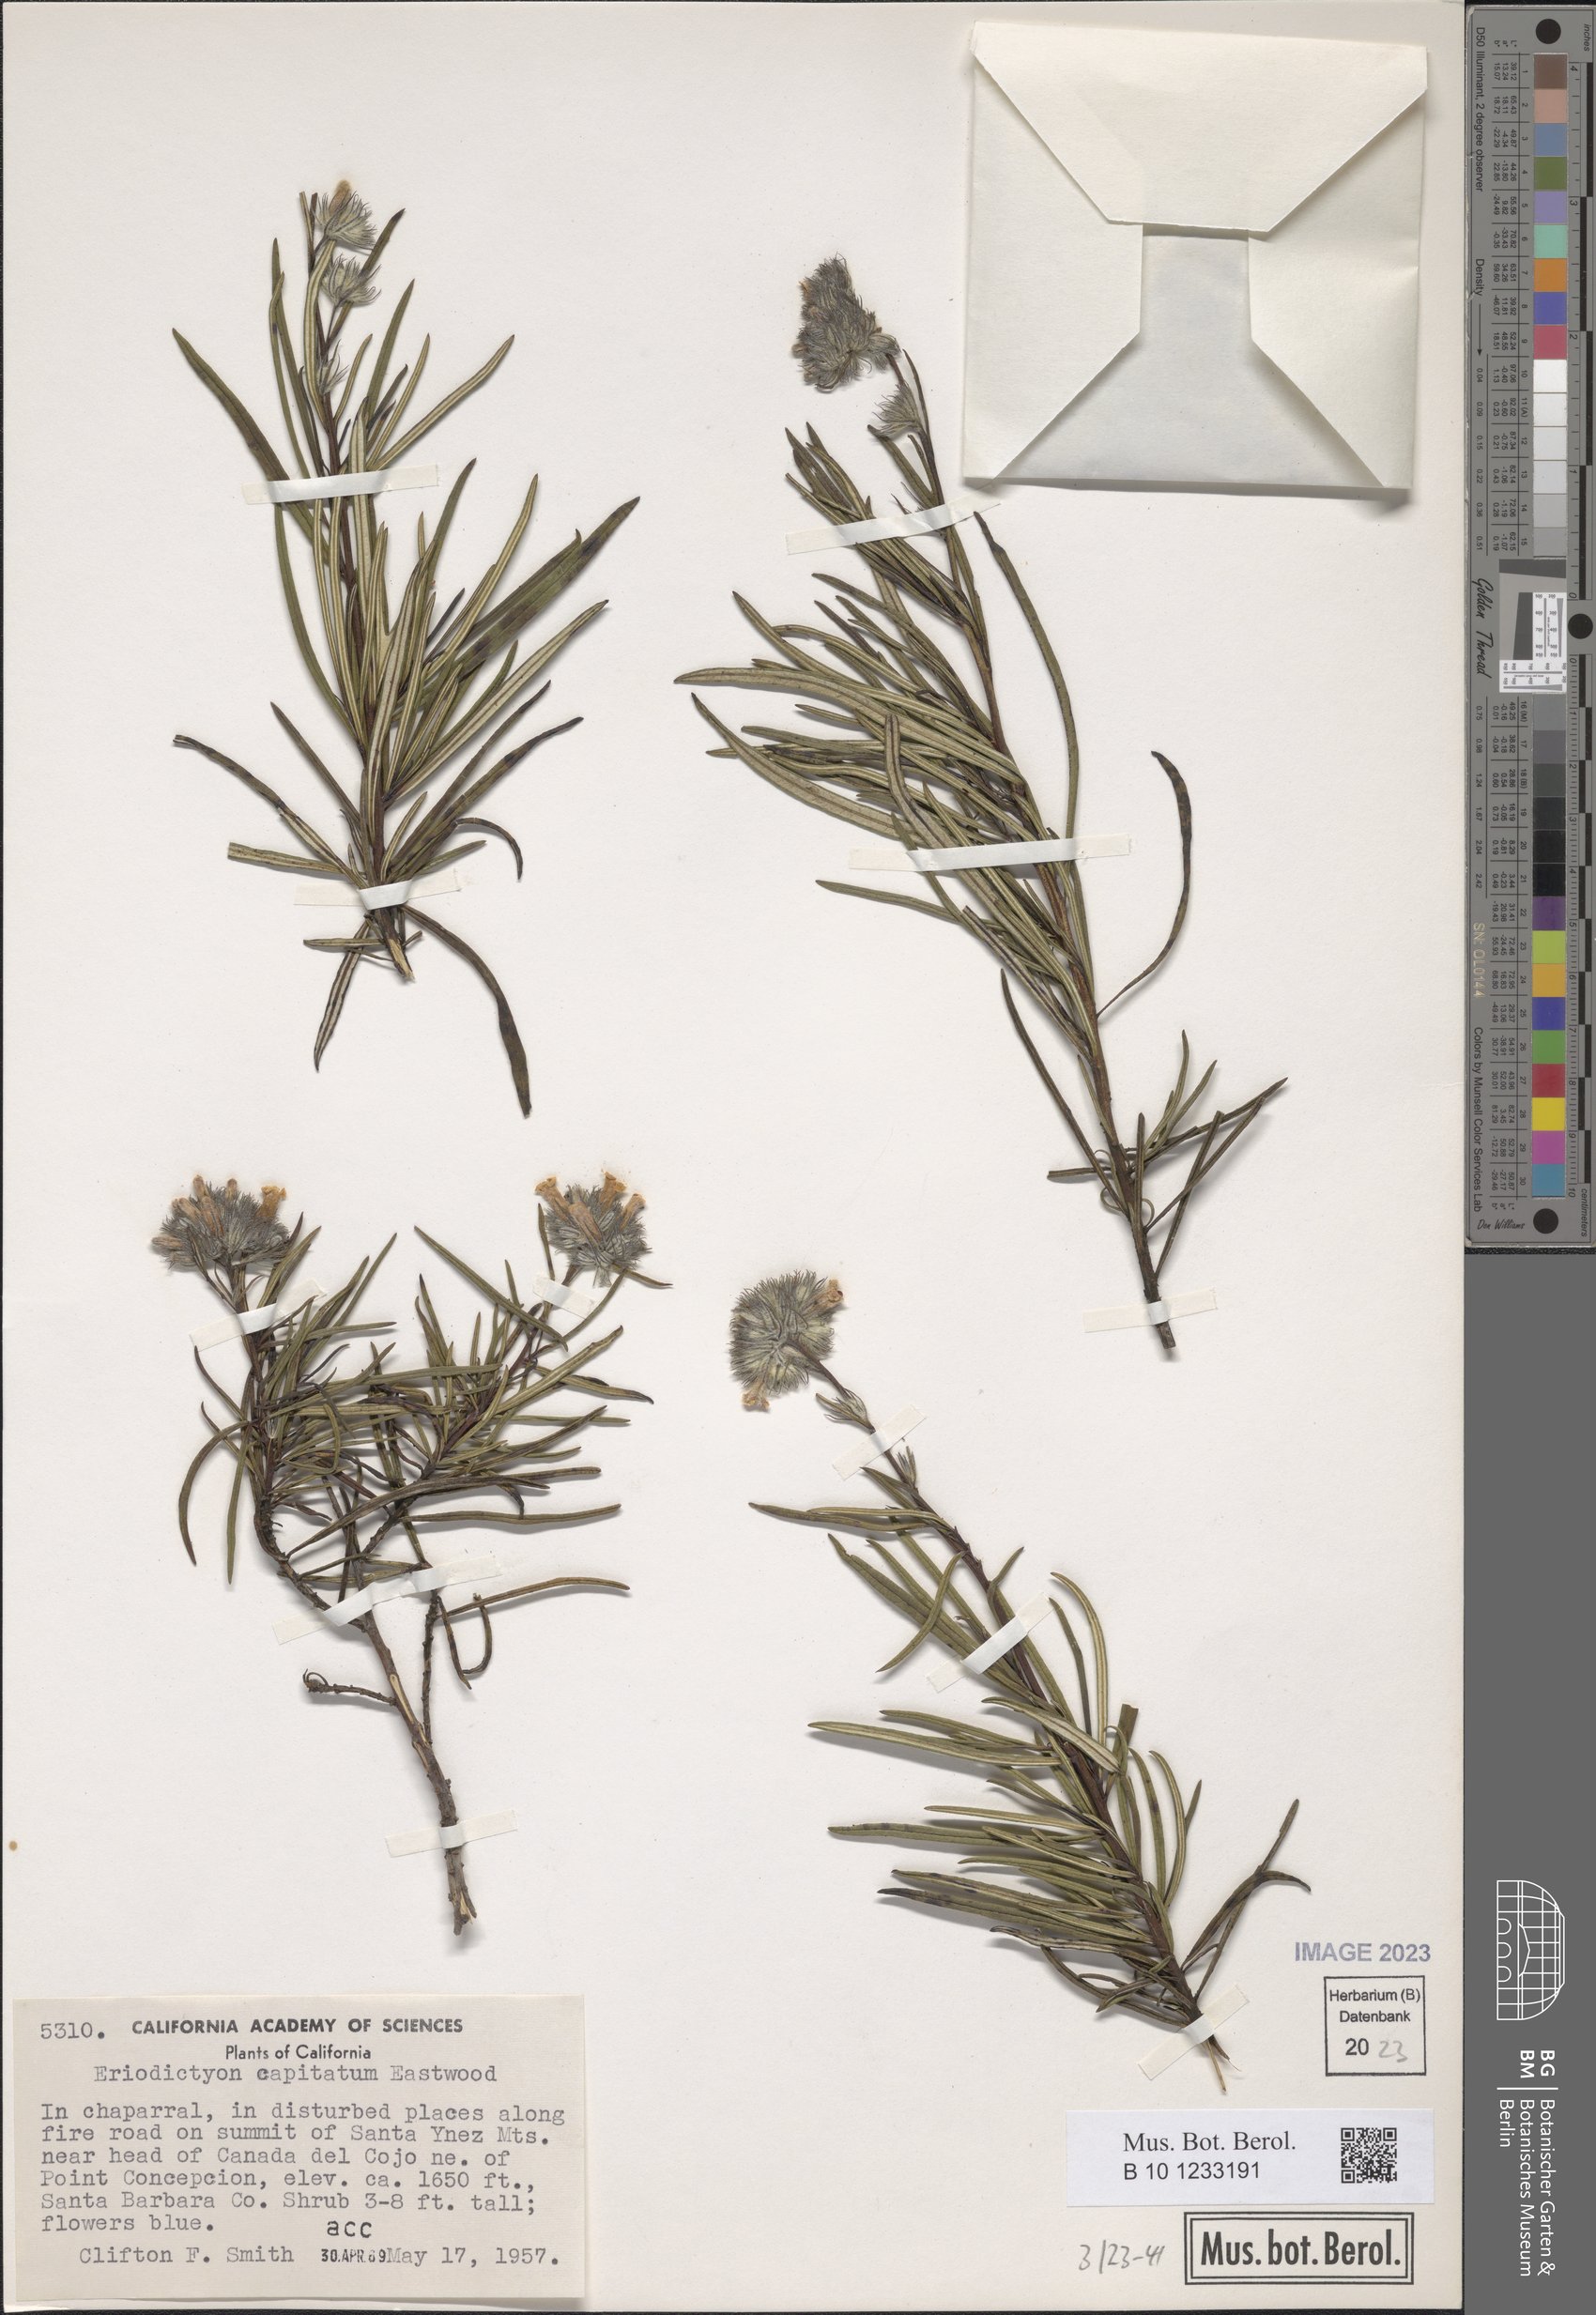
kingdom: Plantae
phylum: Tracheophyta
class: Magnoliopsida
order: Boraginales
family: Namaceae
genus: Eriodictyon
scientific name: Eriodictyon capitatum
